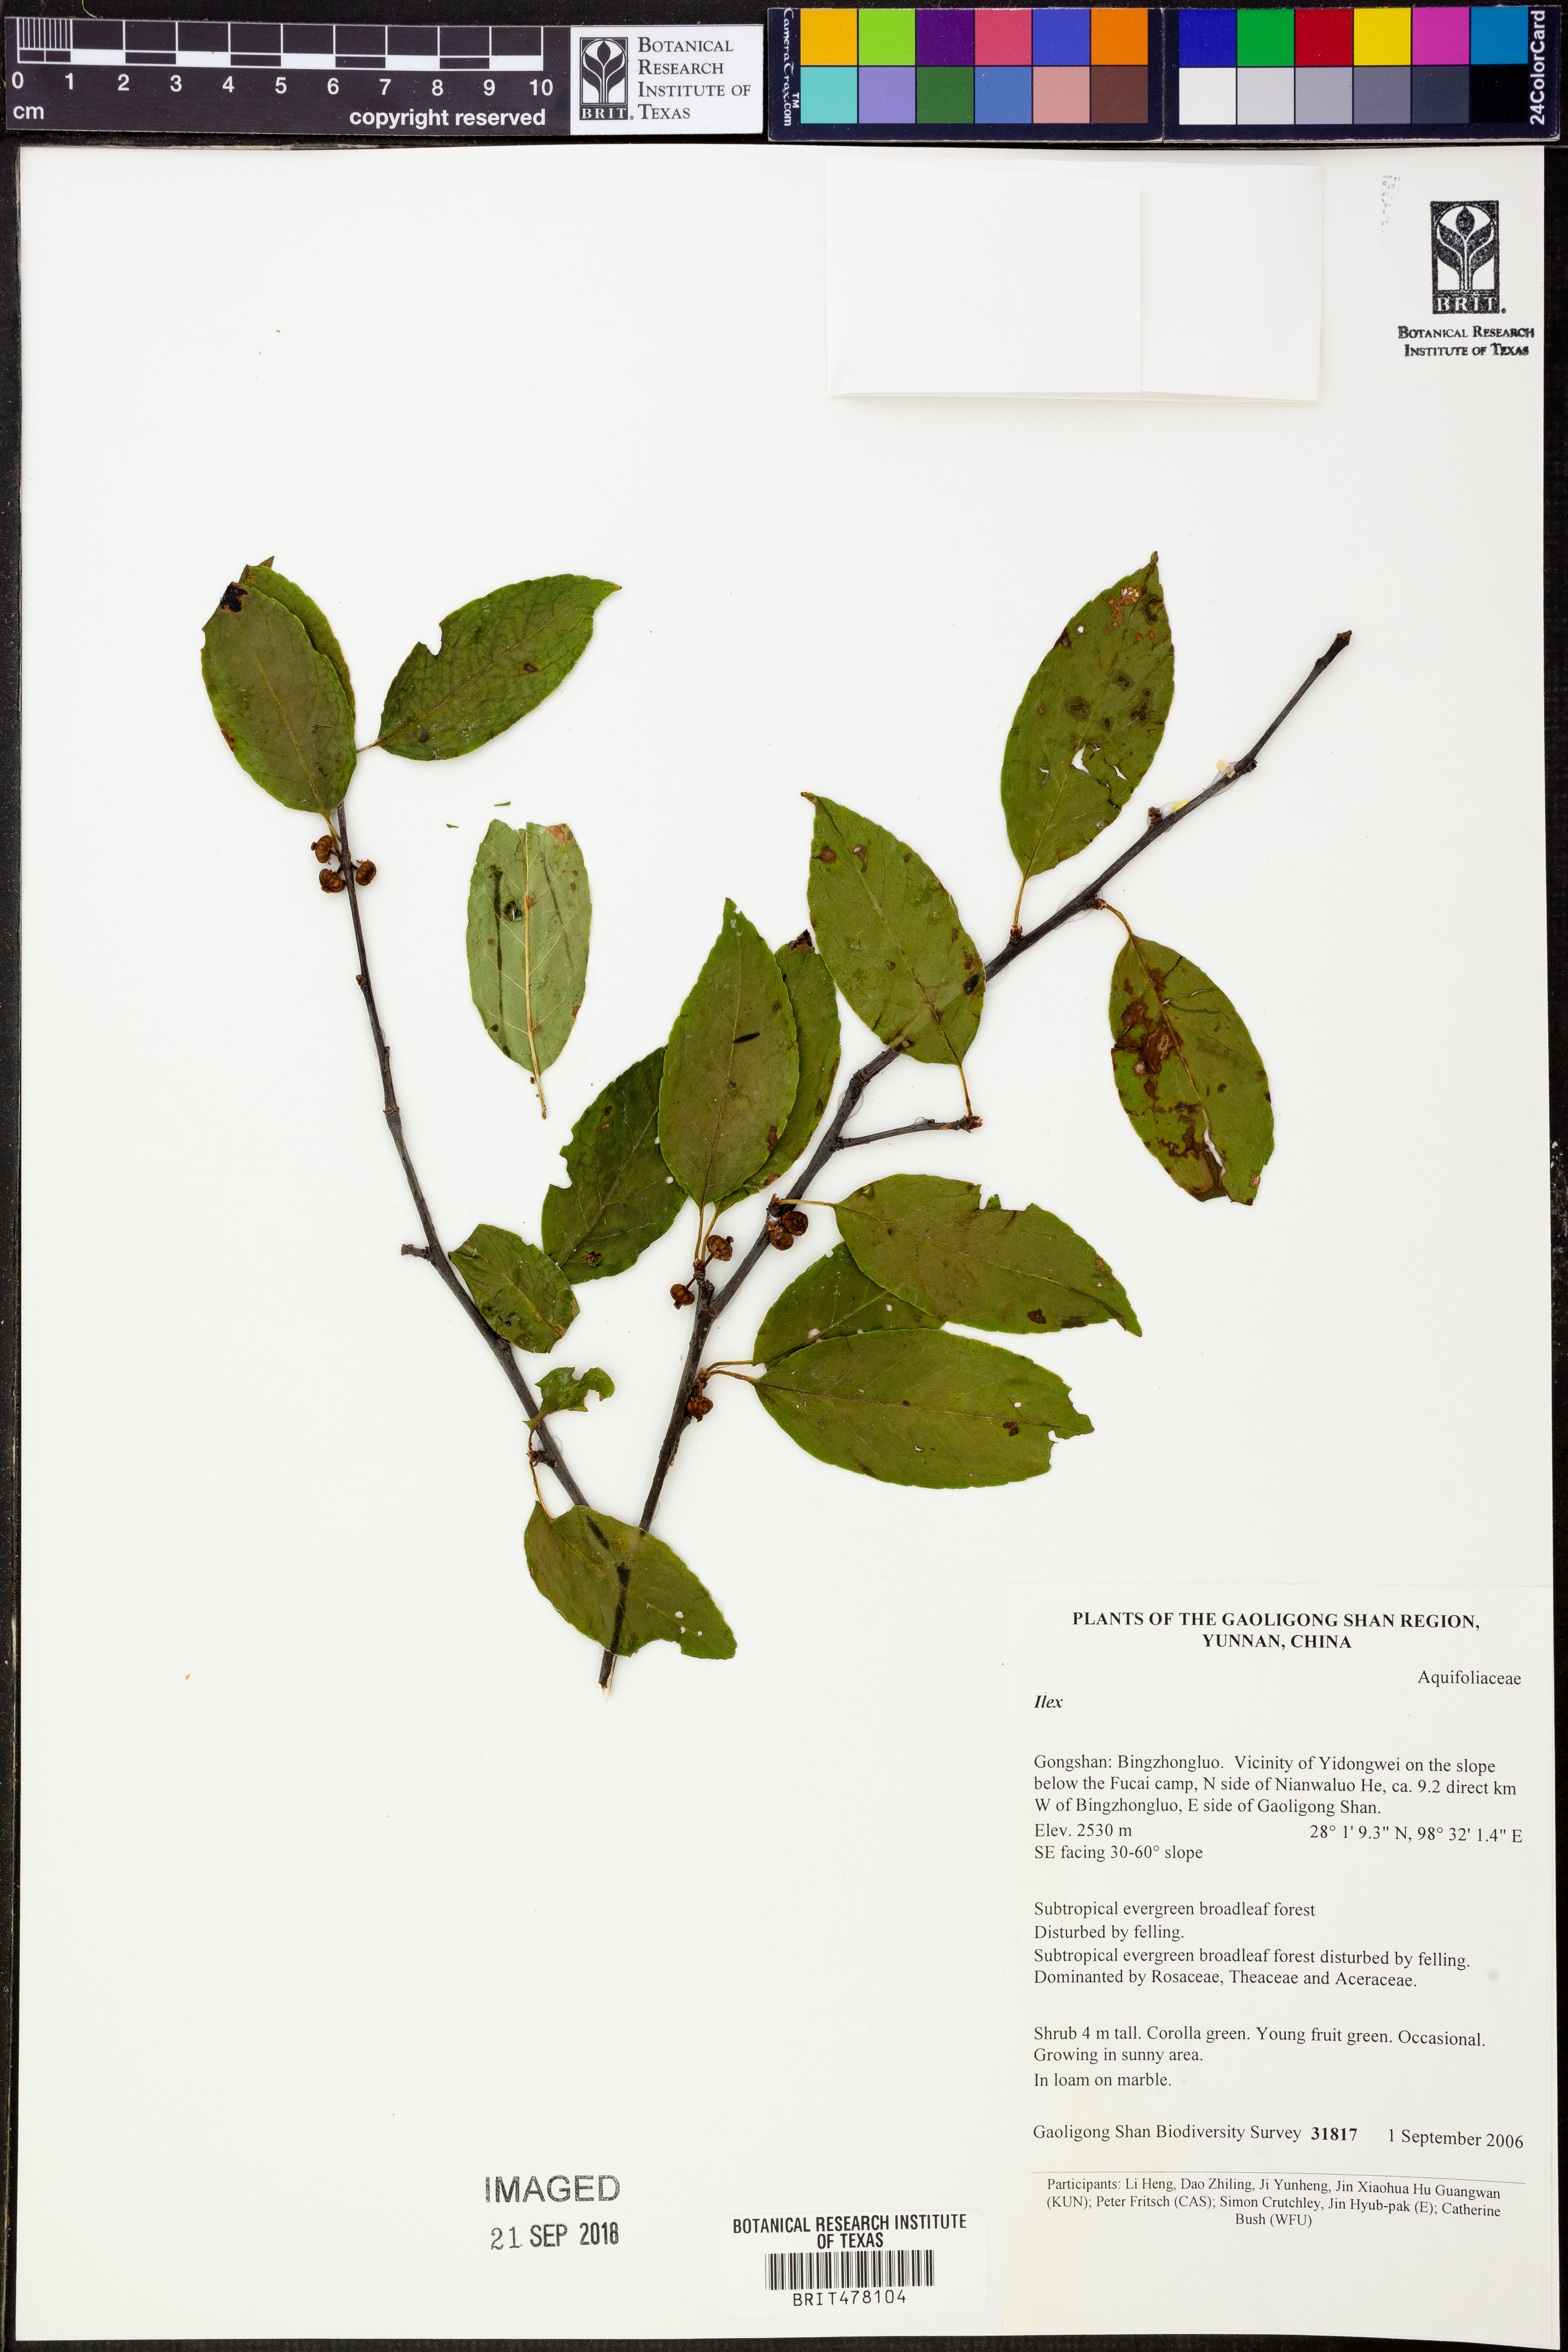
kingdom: Plantae
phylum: Tracheophyta
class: Magnoliopsida
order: Aquifoliales
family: Aquifoliaceae
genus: Ilex
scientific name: Ilex
